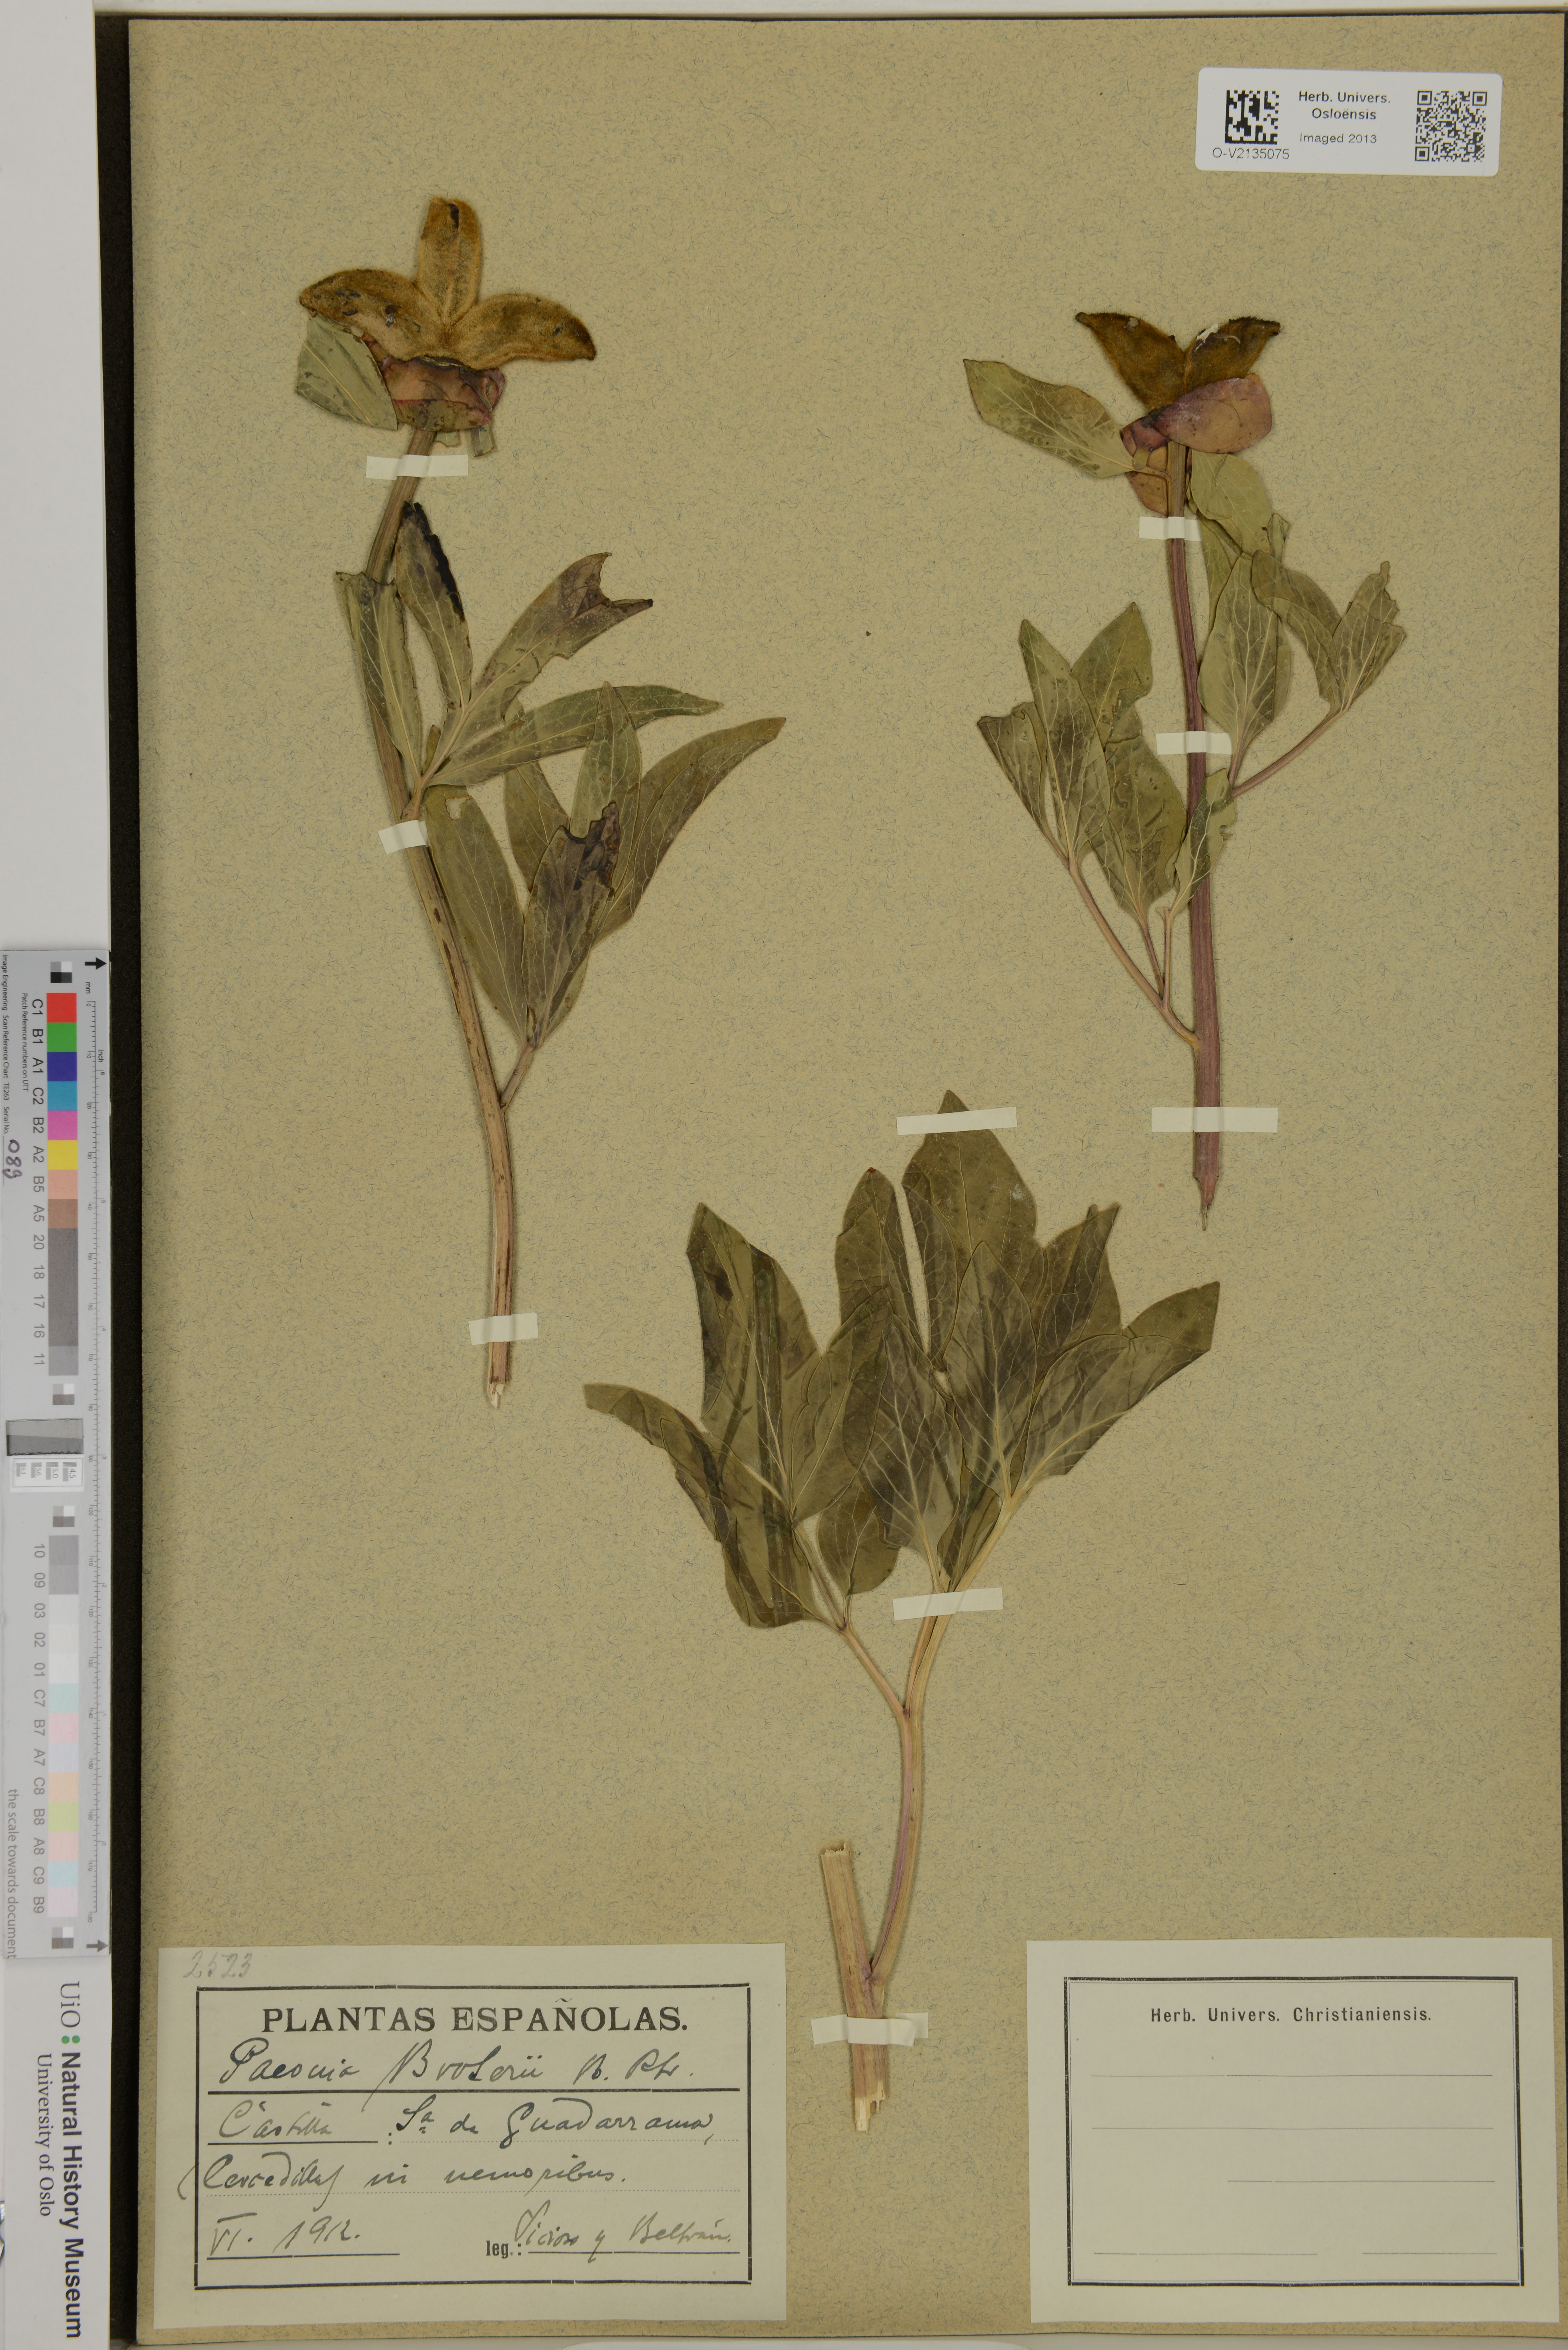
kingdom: Plantae
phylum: Tracheophyta
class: Magnoliopsida
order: Saxifragales
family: Paeoniaceae
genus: Paeonia
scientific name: Paeonia broteroi
